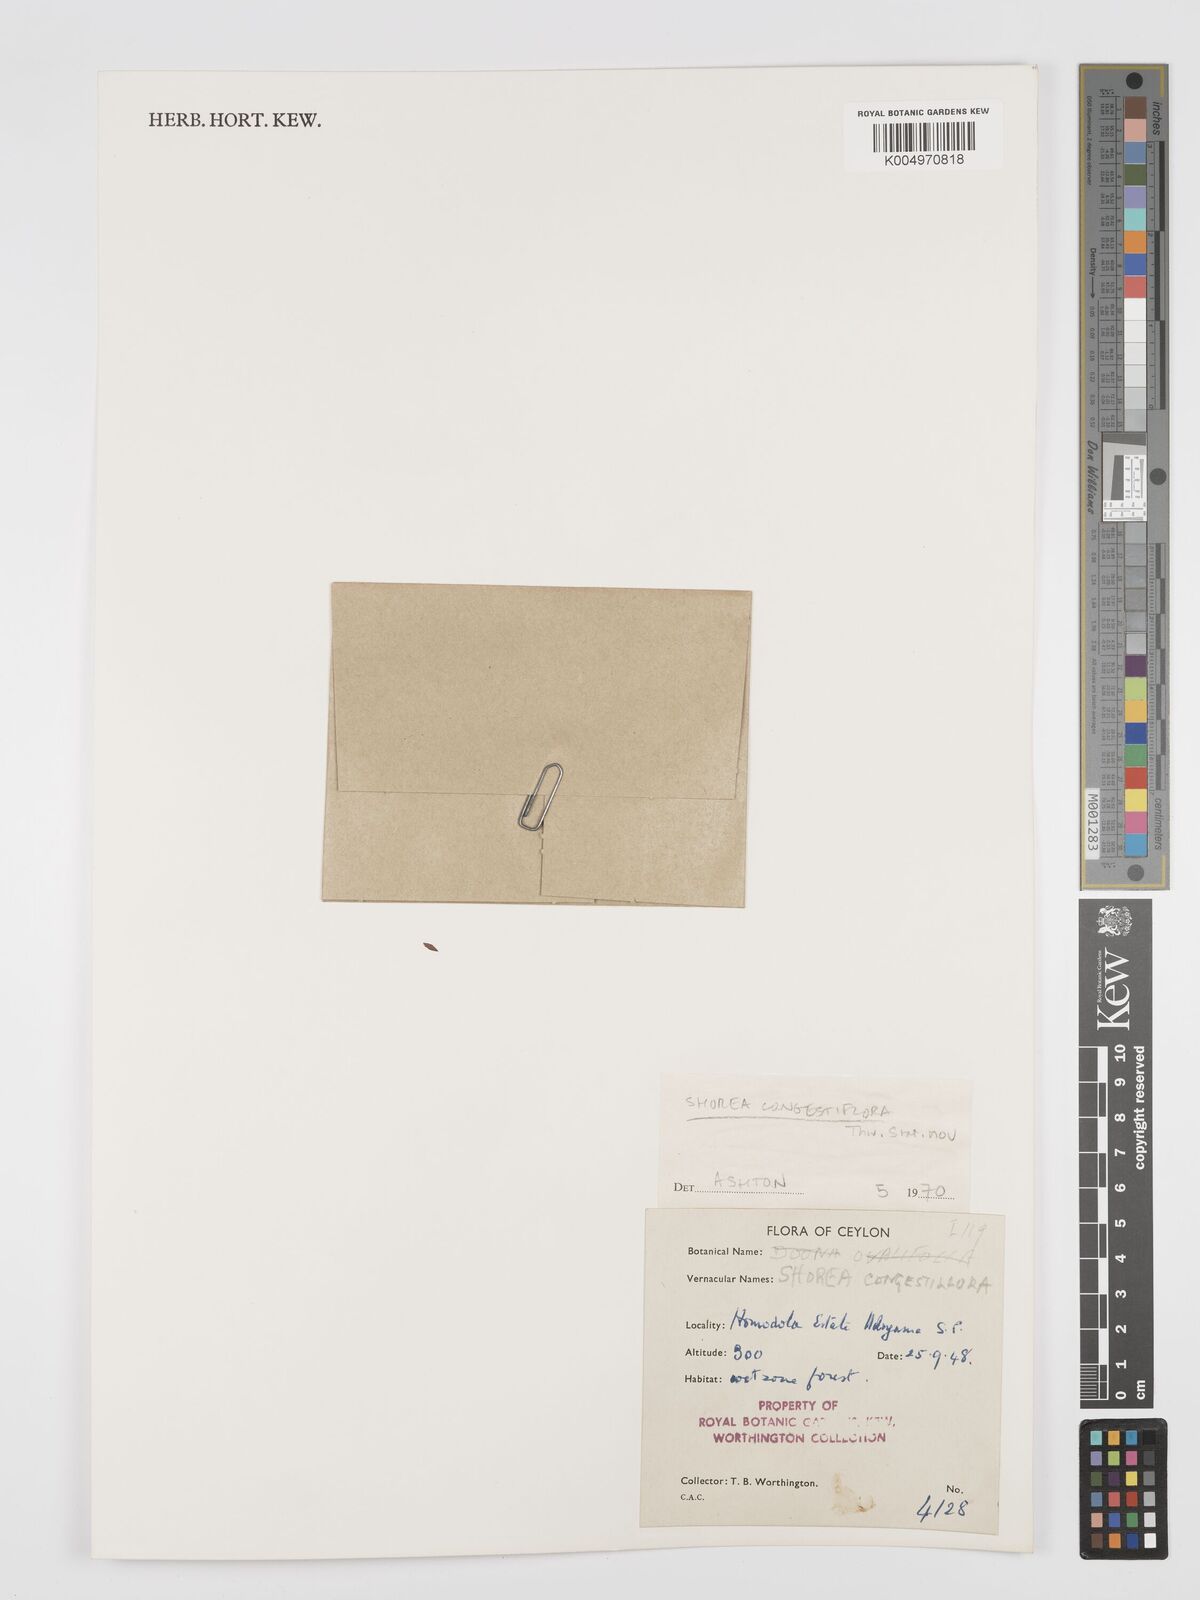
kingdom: Plantae
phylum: Tracheophyta
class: Magnoliopsida
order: Malvales
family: Dipterocarpaceae
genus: Doona
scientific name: Doona congestiflora
